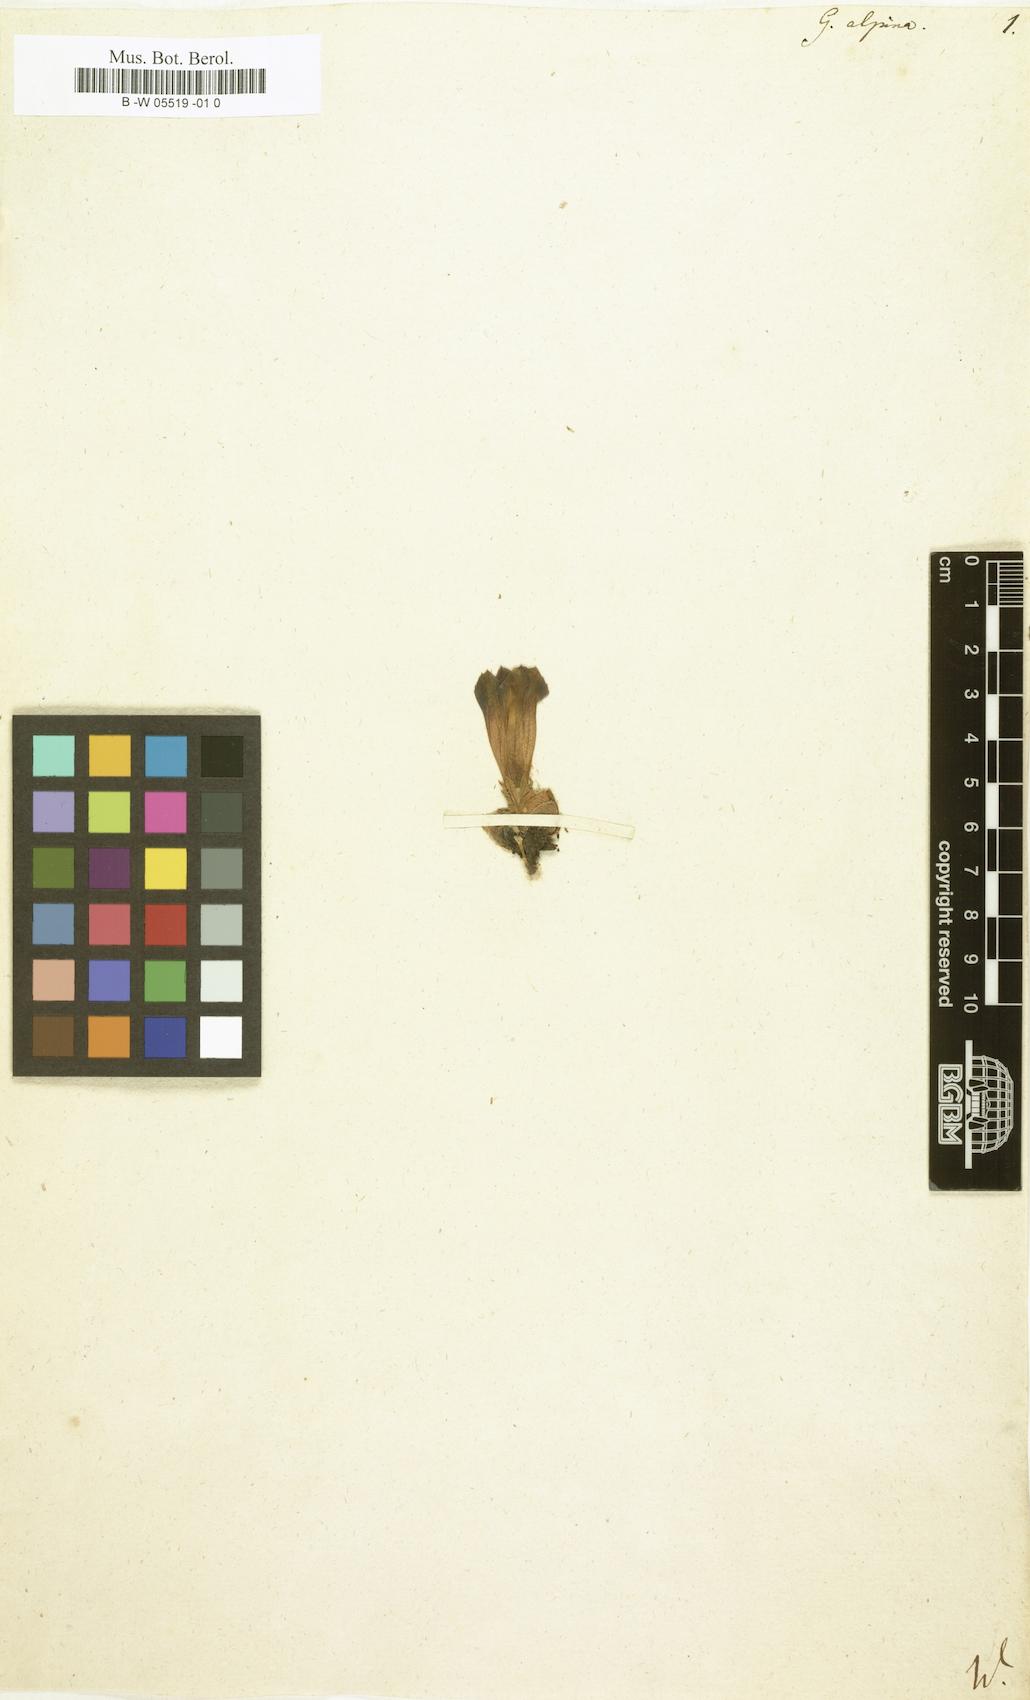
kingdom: Plantae
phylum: Tracheophyta
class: Magnoliopsida
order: Gentianales
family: Gentianaceae
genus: Gentiana
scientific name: Gentiana alpina
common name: Southern gentian
